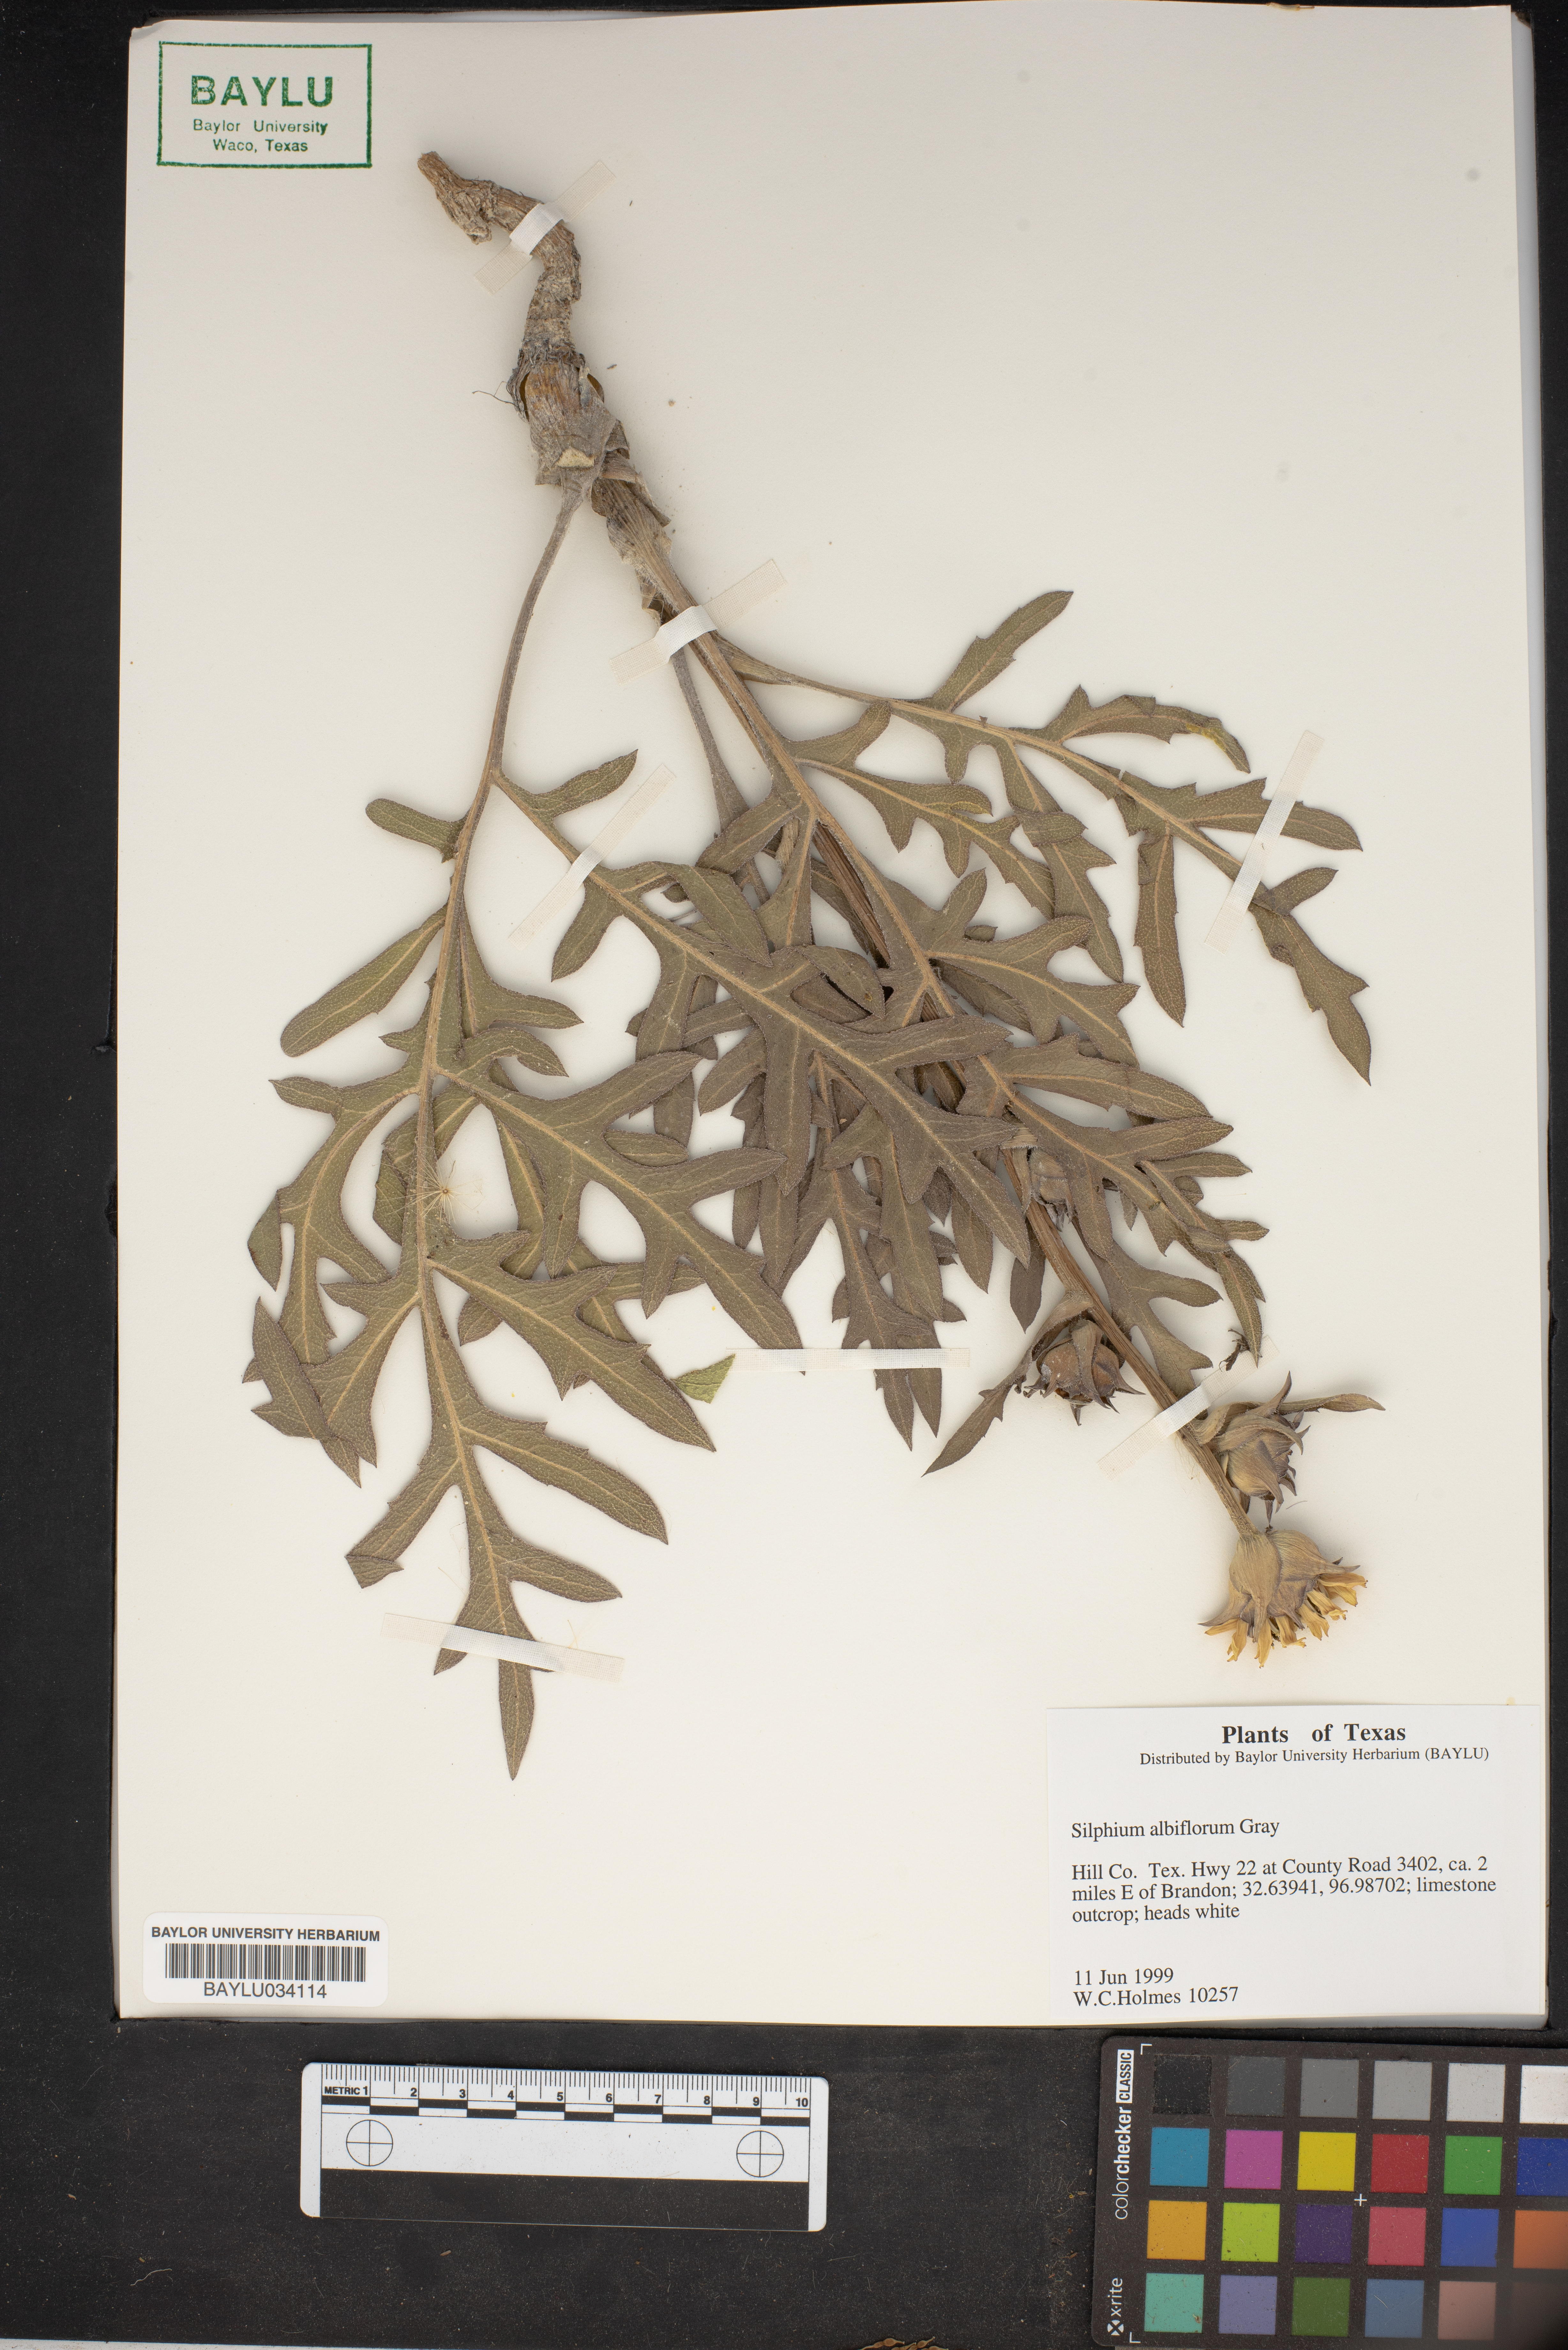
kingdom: Plantae
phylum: Tracheophyta
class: Magnoliopsida
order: Asterales
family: Asteraceae
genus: Silphium
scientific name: Silphium albiflorum
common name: White rosinweed
